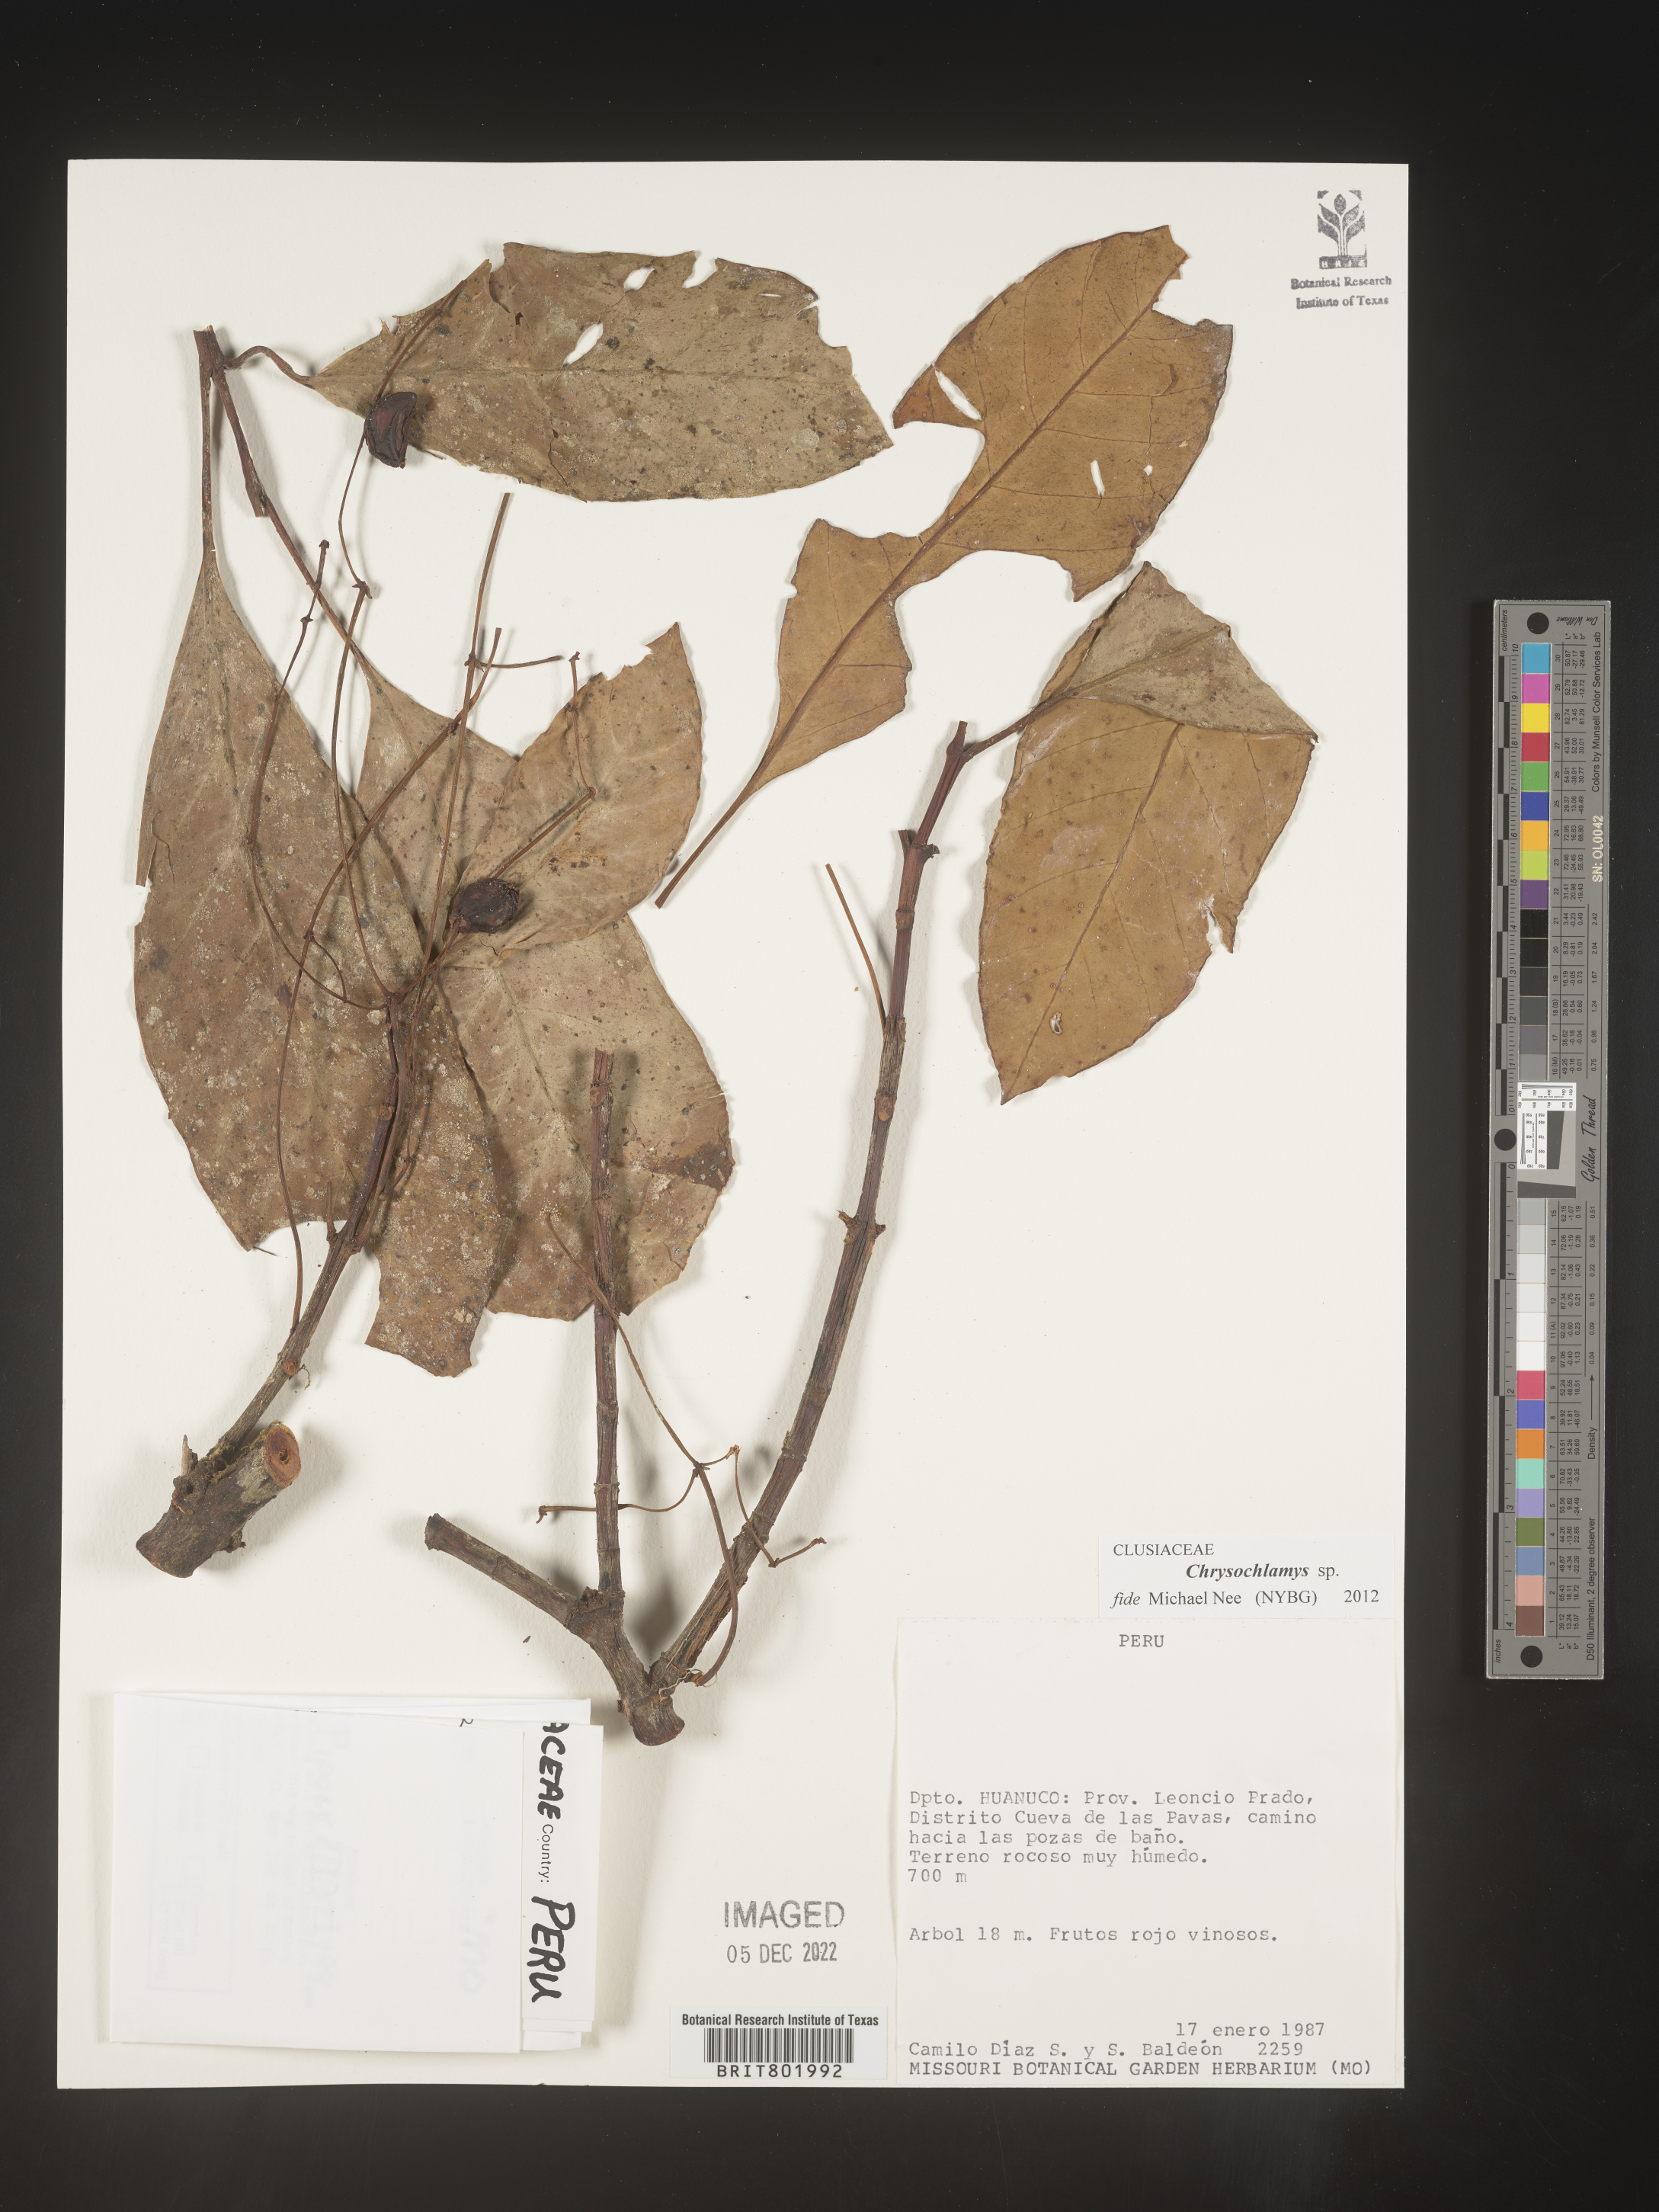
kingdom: Plantae
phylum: Tracheophyta
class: Magnoliopsida
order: Malpighiales
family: Clusiaceae
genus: Chrysochlamys
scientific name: Chrysochlamys
